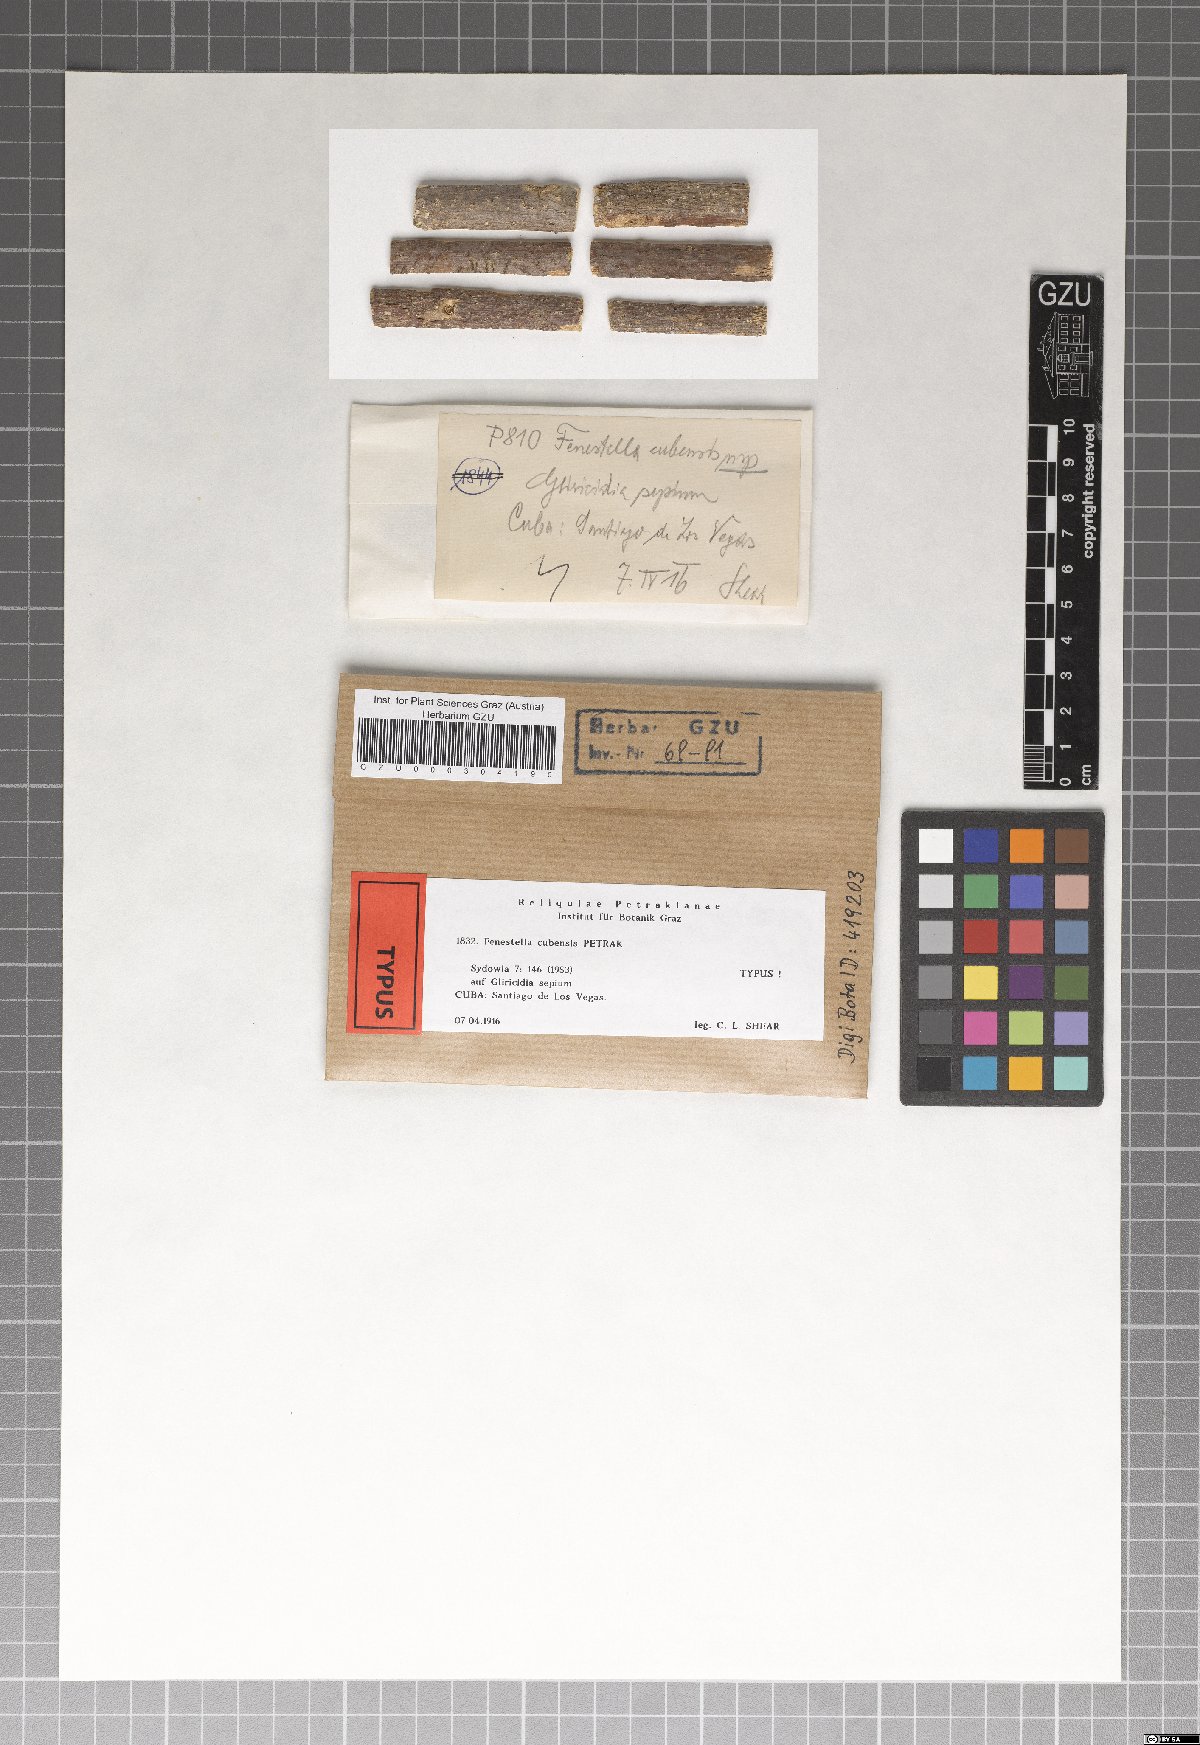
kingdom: Fungi
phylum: Ascomycota
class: Dothideomycetes
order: Pleosporales
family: Fenestellaceae
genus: Fenestella
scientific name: Fenestella cubensis
